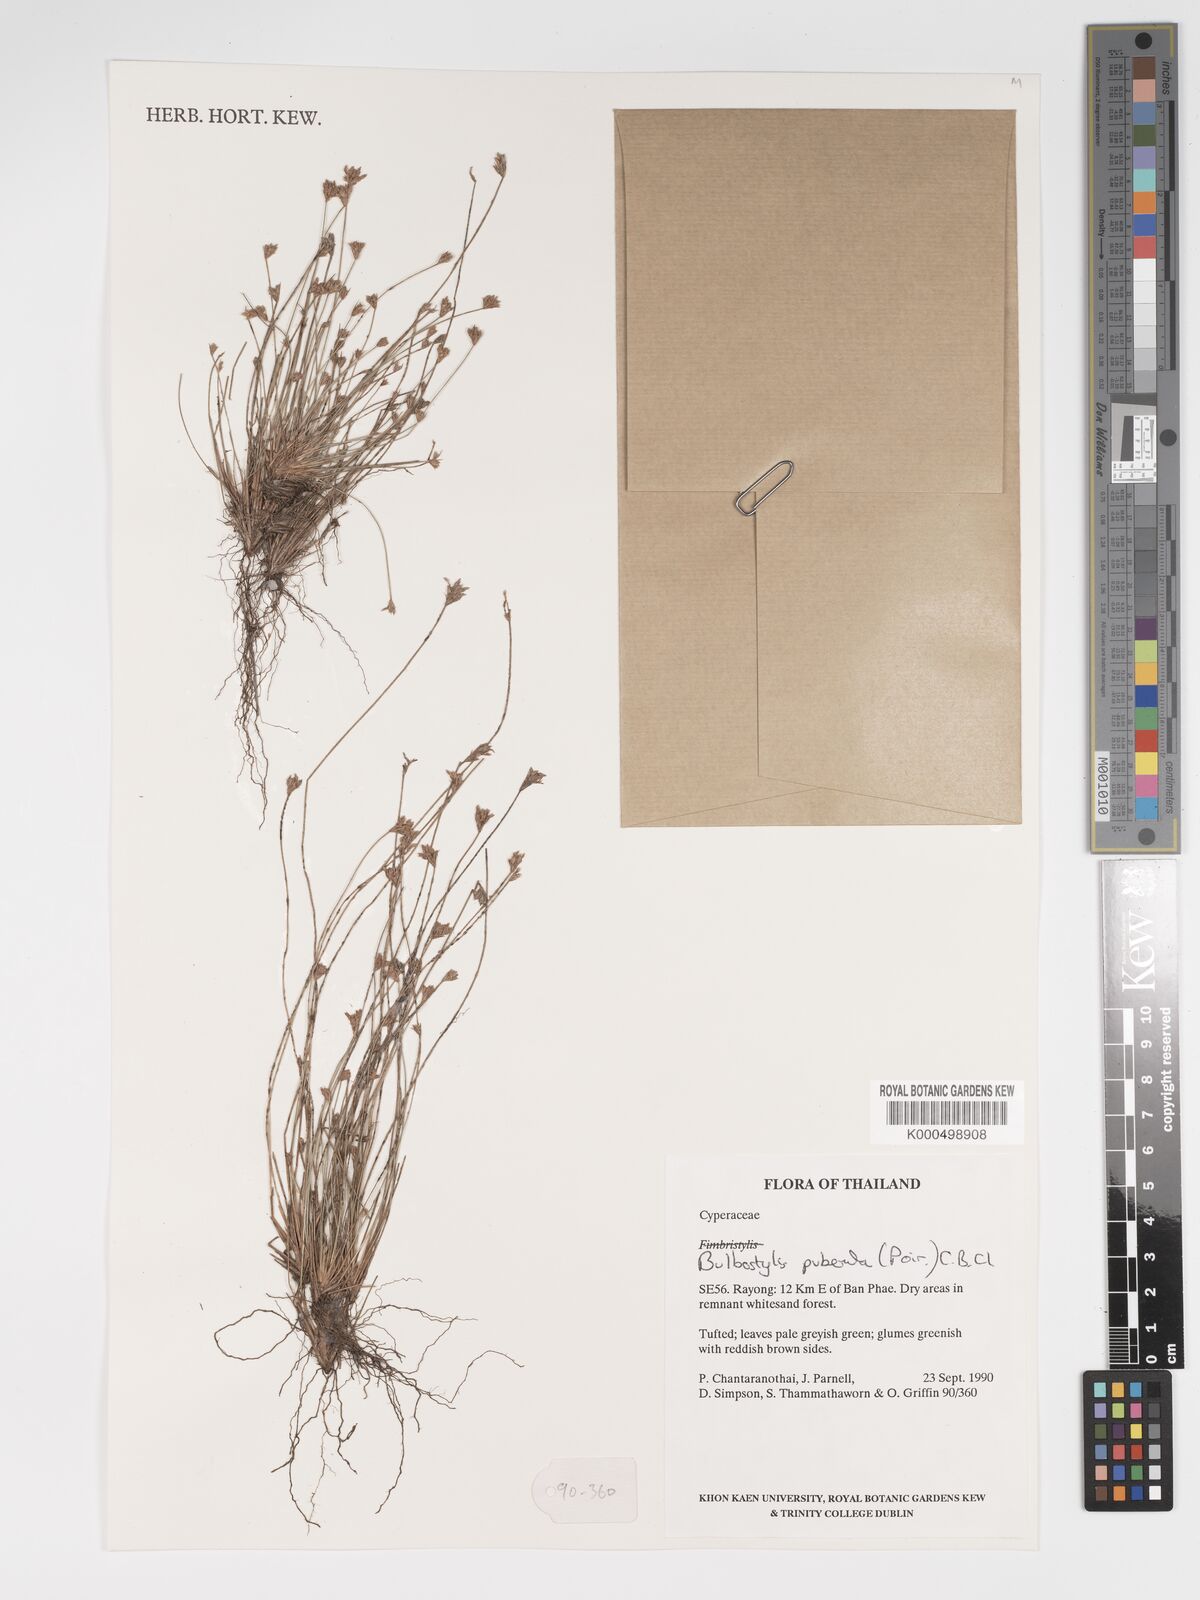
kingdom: Plantae
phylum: Tracheophyta
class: Liliopsida
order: Poales
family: Cyperaceae
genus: Bulbostylis
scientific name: Bulbostylis thouarsii
